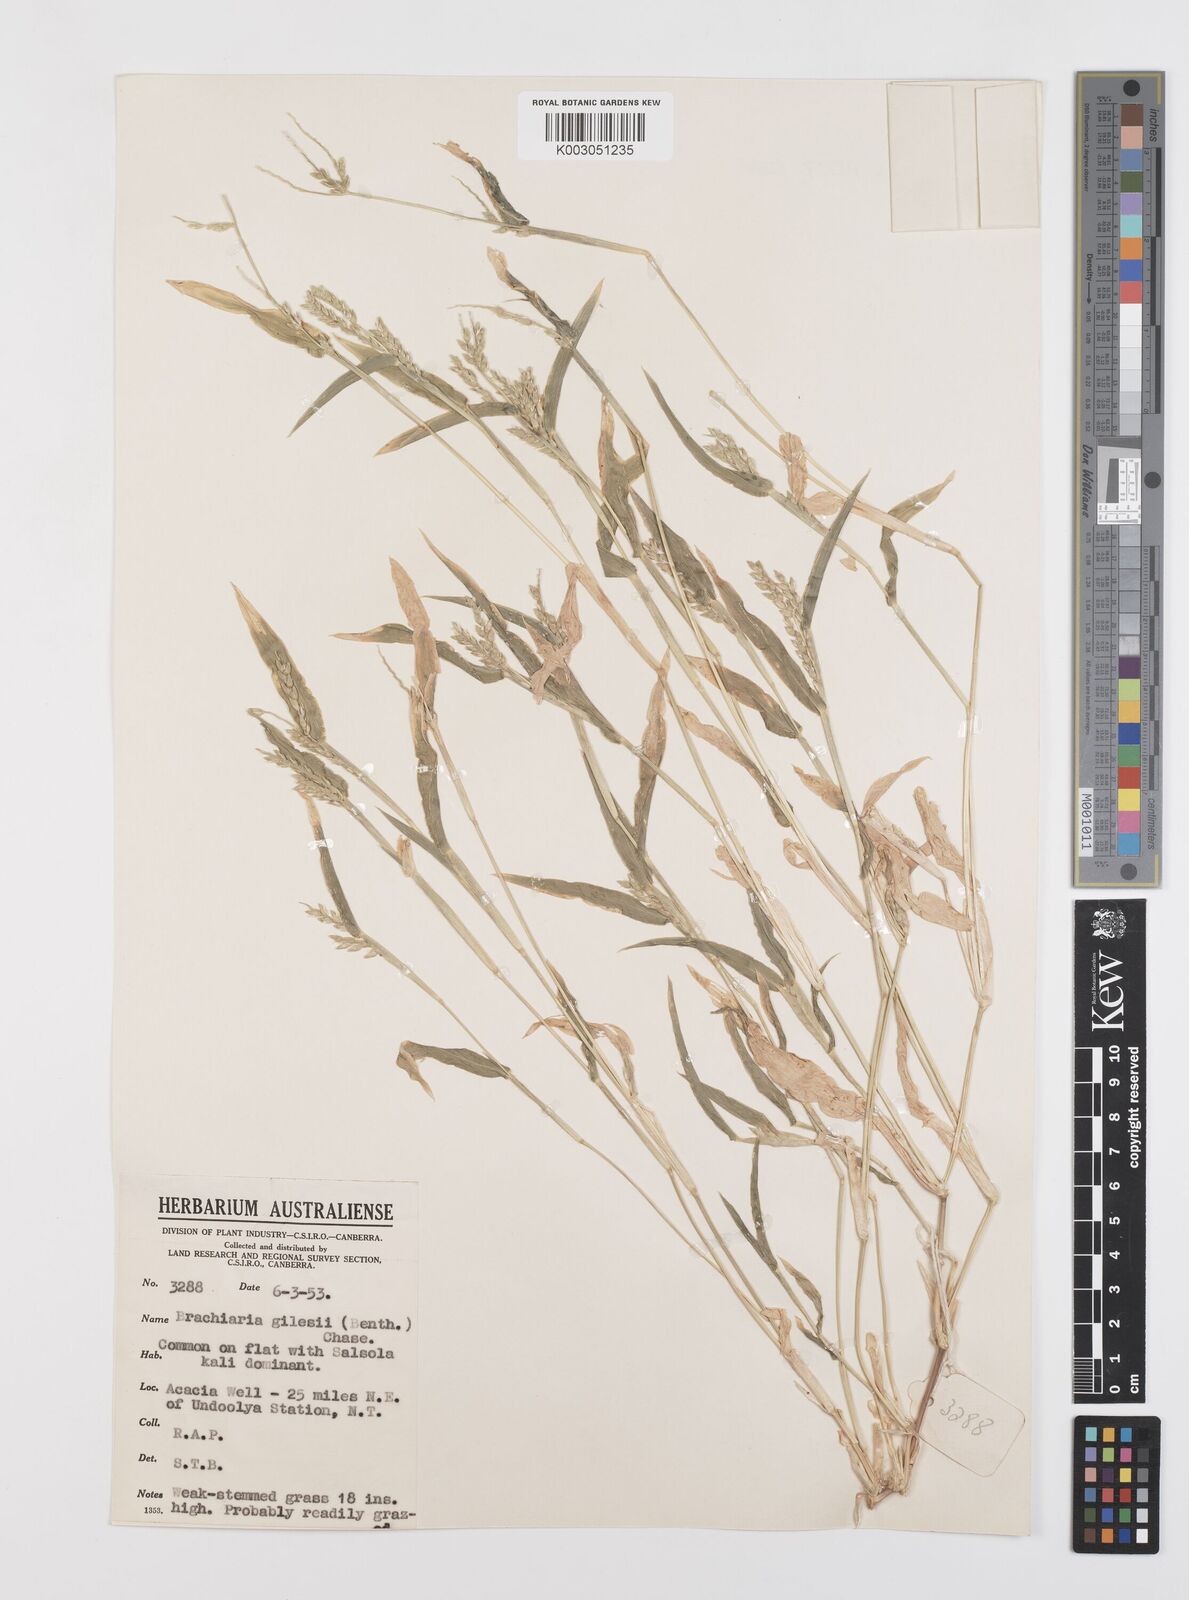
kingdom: Plantae
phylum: Tracheophyta
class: Liliopsida
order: Poales
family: Poaceae
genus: Urochloa
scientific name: Urochloa gilesii
